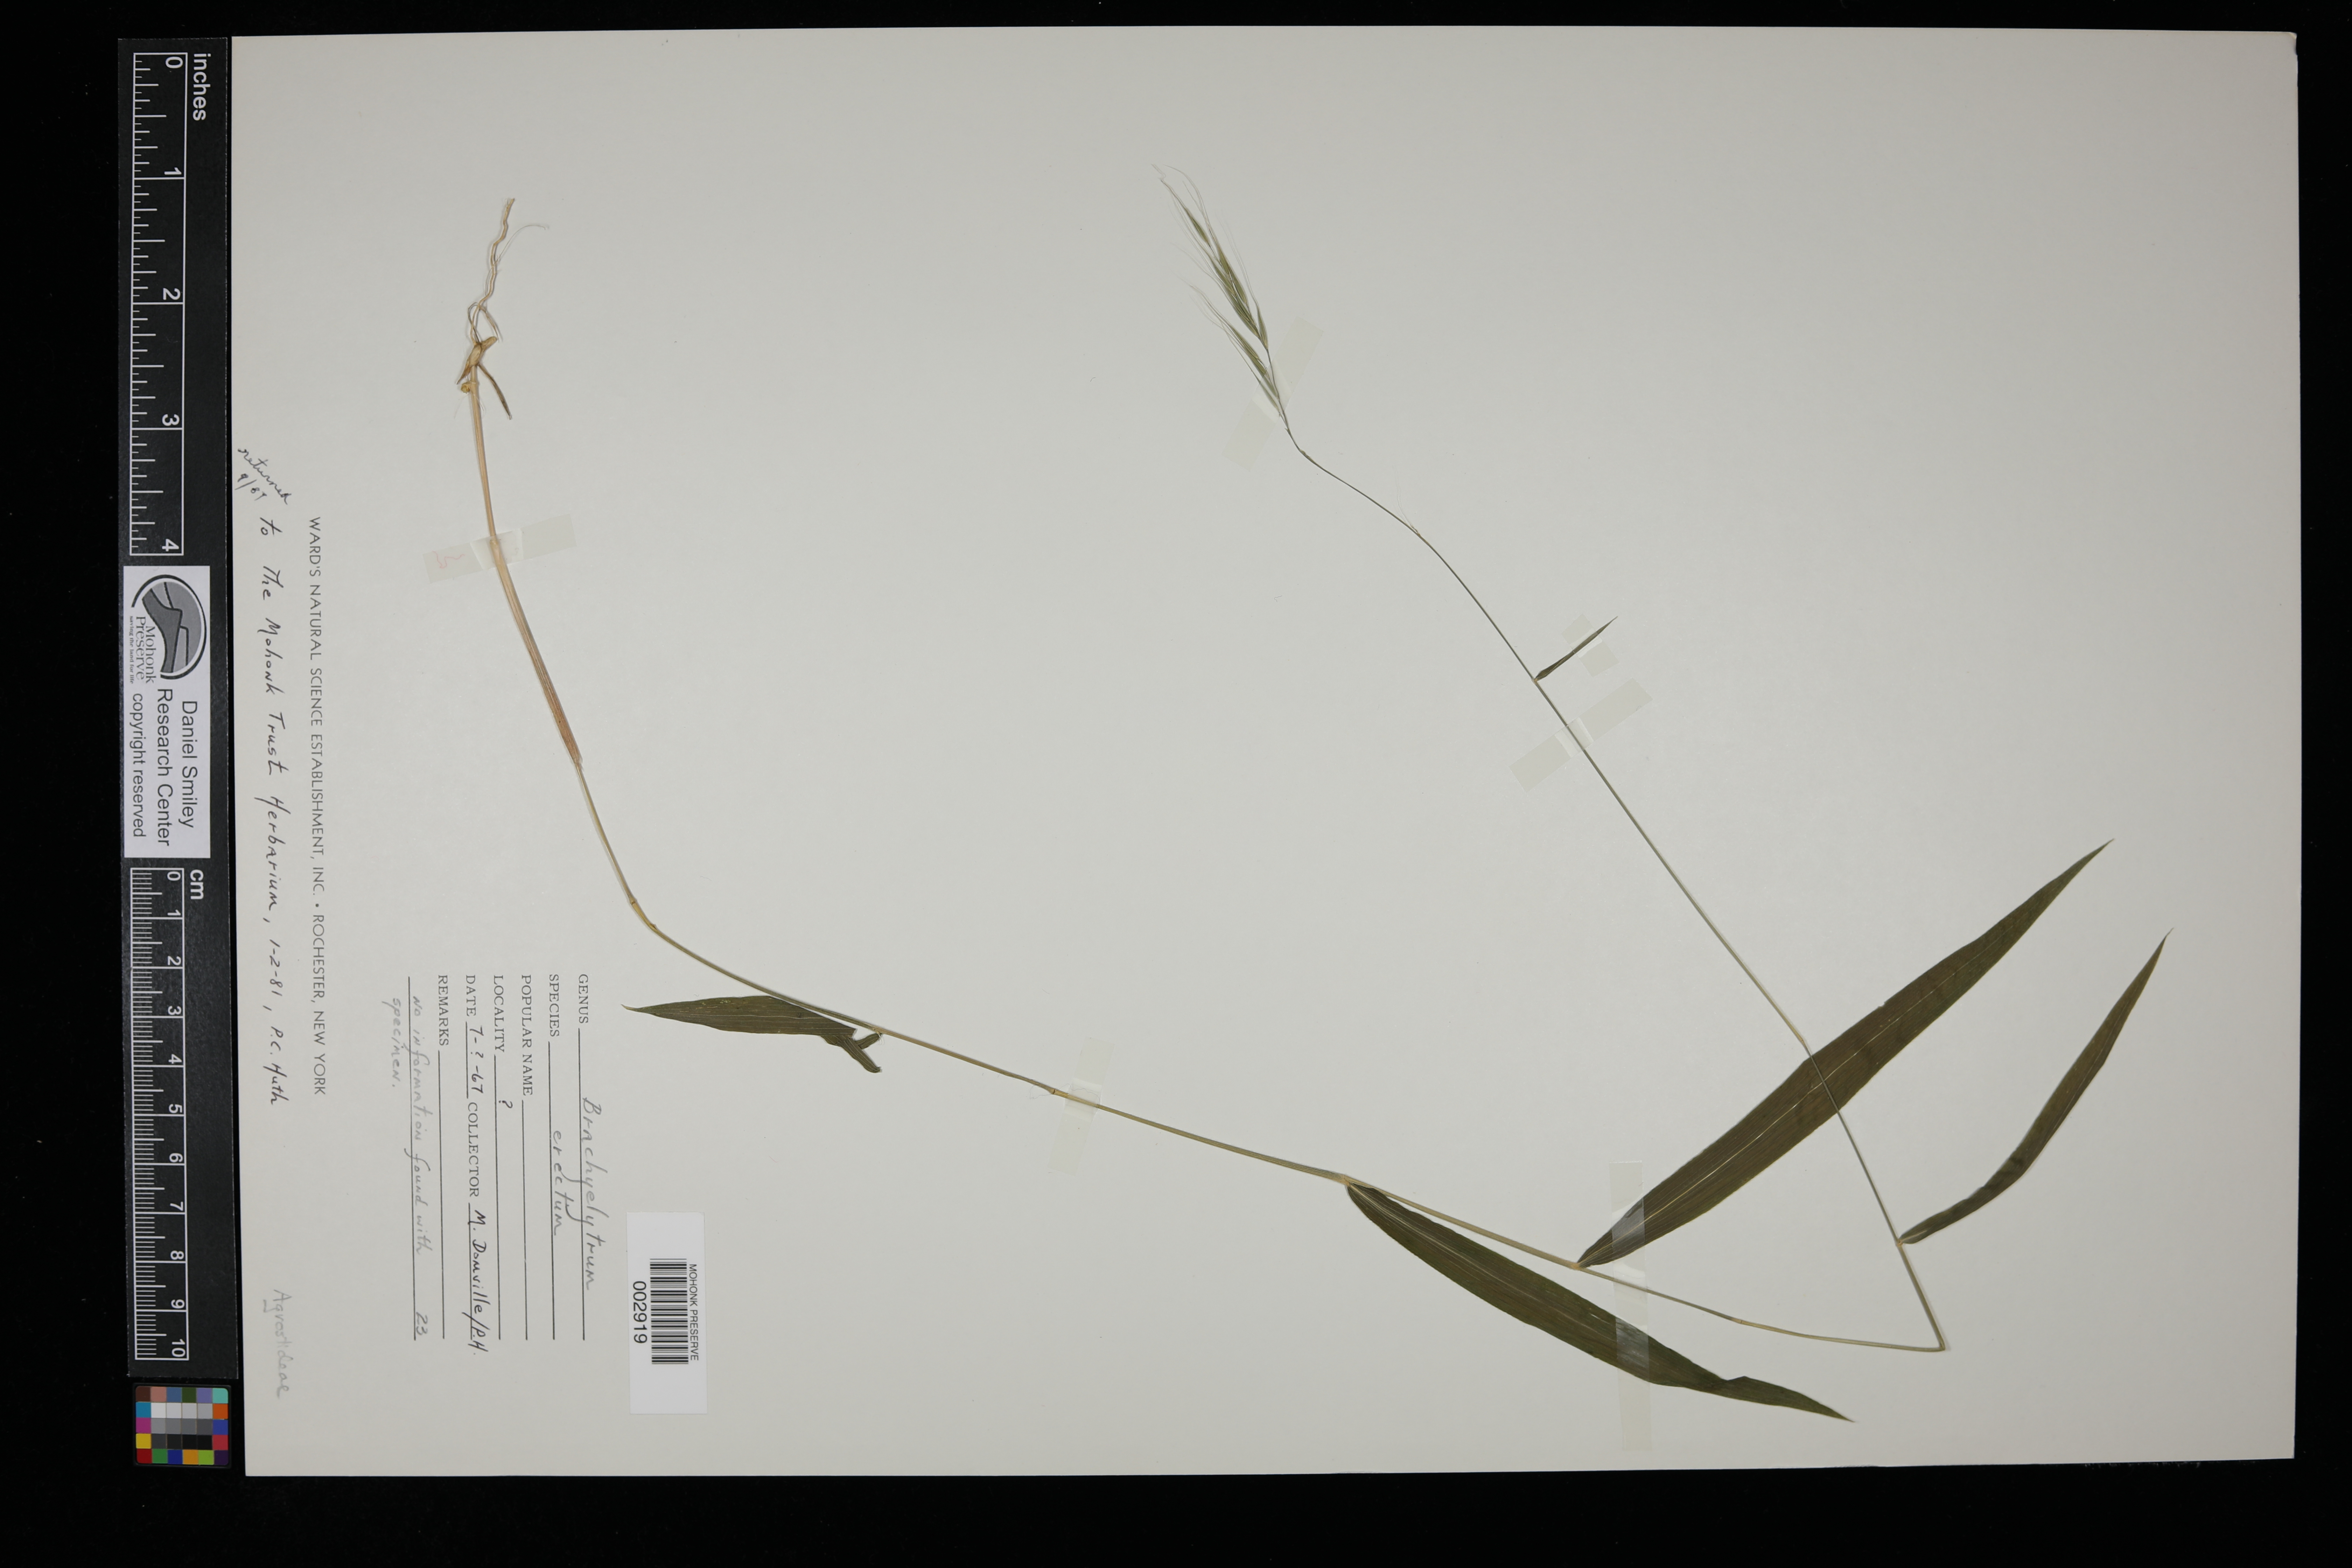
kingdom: Plantae
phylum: Tracheophyta
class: Liliopsida
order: Poales
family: Poaceae
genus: Brachyelytrum
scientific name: Brachyelytrum erectum
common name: Bearded shorthusk
